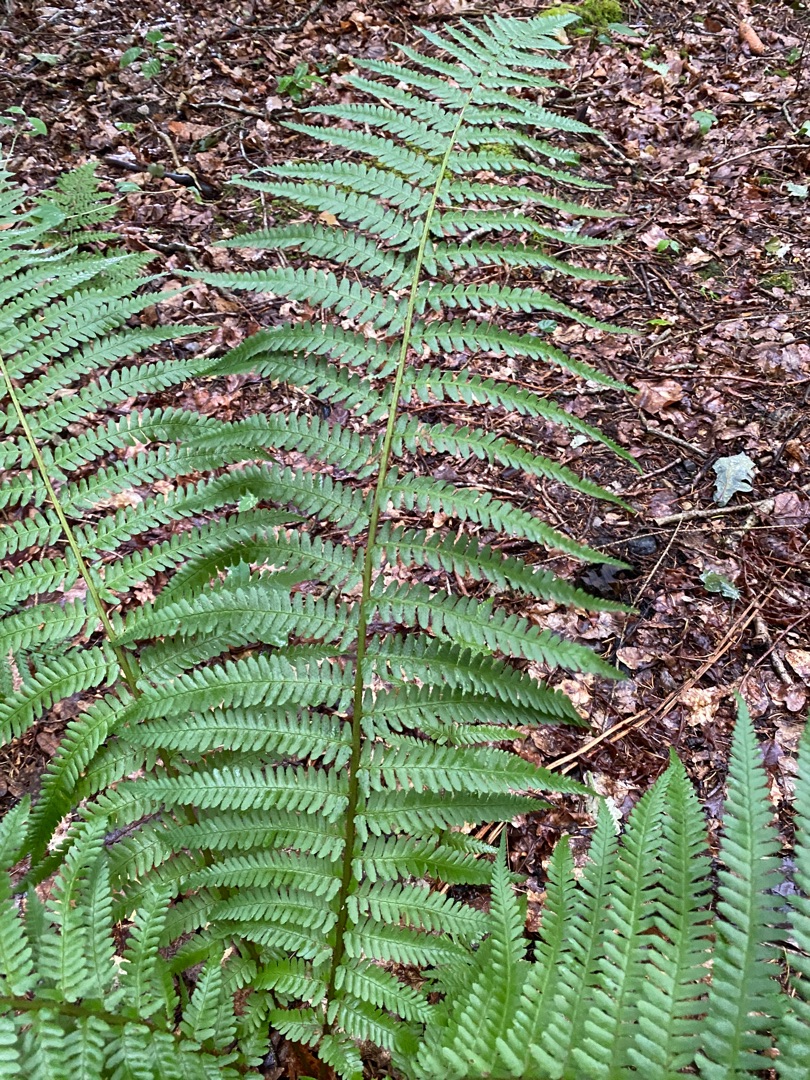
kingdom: Plantae
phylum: Tracheophyta
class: Polypodiopsida
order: Polypodiales
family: Dryopteridaceae
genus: Dryopteris
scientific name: Dryopteris filix-mas
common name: Almindelig mangeløv
